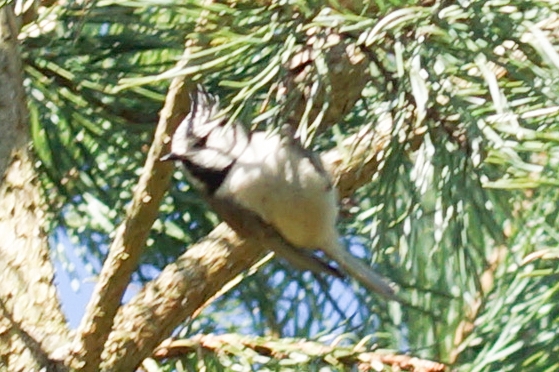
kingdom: Animalia
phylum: Chordata
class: Aves
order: Passeriformes
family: Paridae
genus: Lophophanes
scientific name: Lophophanes cristatus
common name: Topmejse
